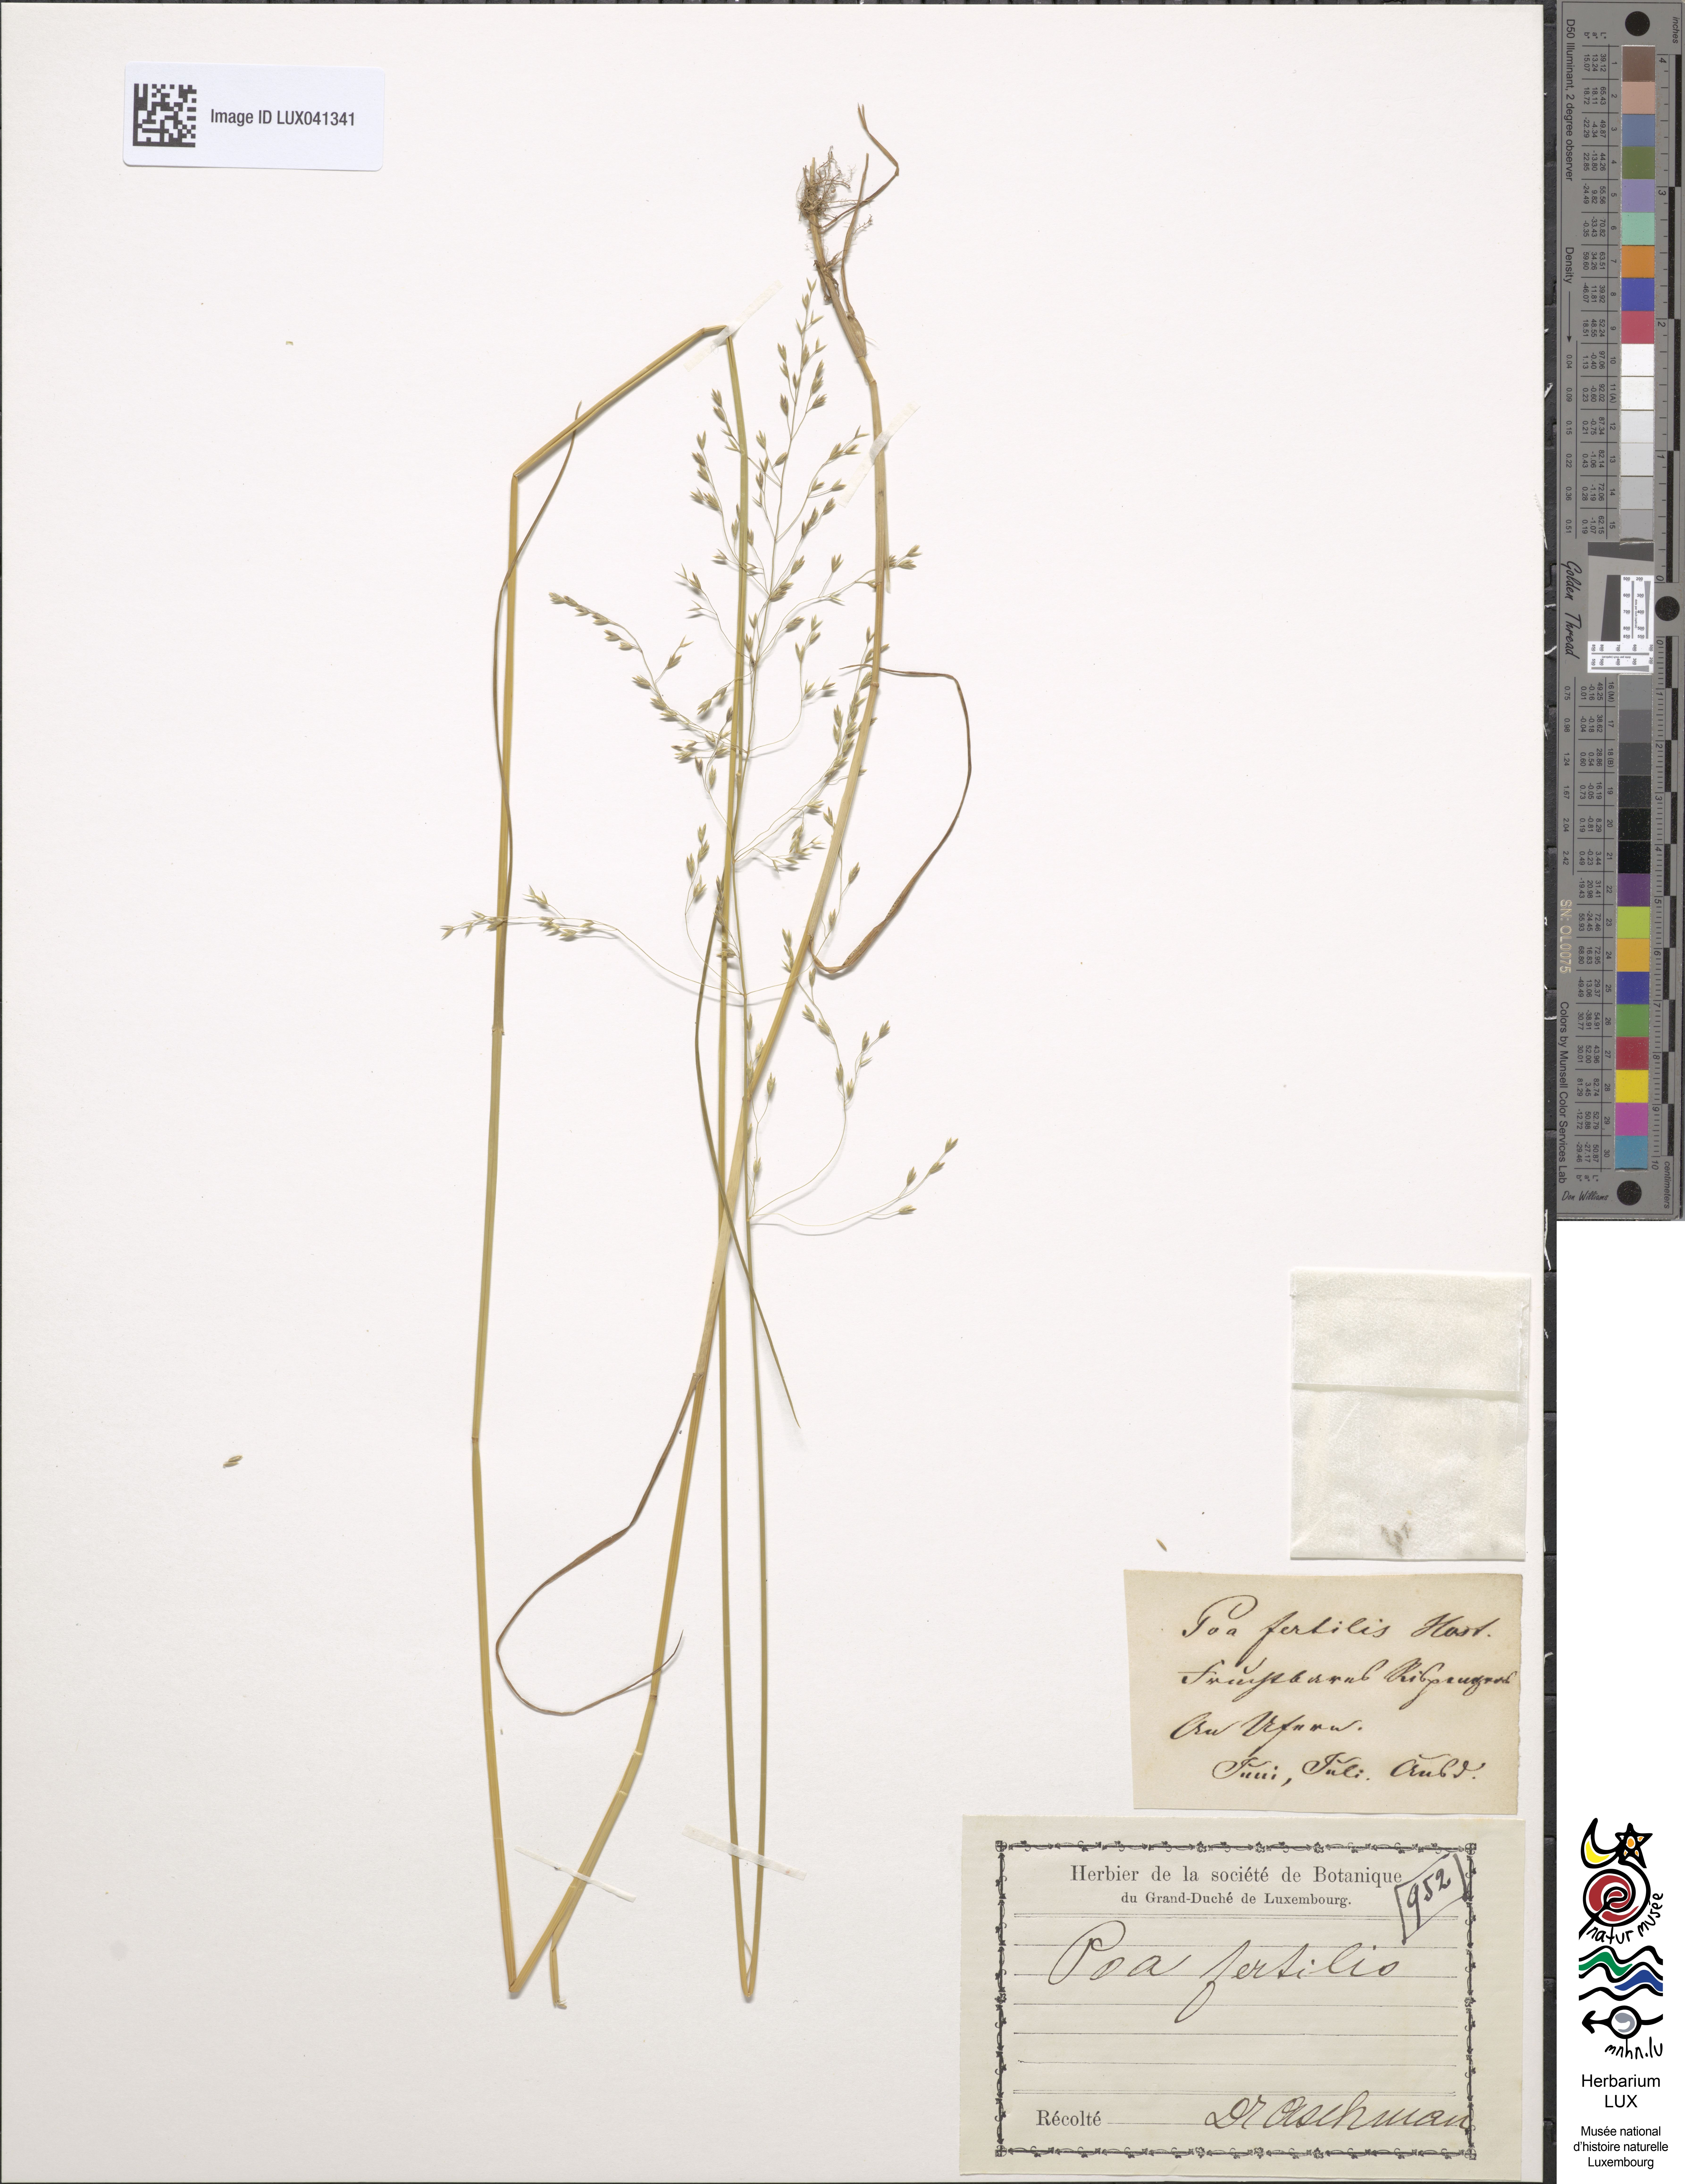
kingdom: Plantae
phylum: Tracheophyta
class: Liliopsida
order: Poales
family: Poaceae
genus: Poa
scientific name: Poa palustris
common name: Swamp meadow-grass
